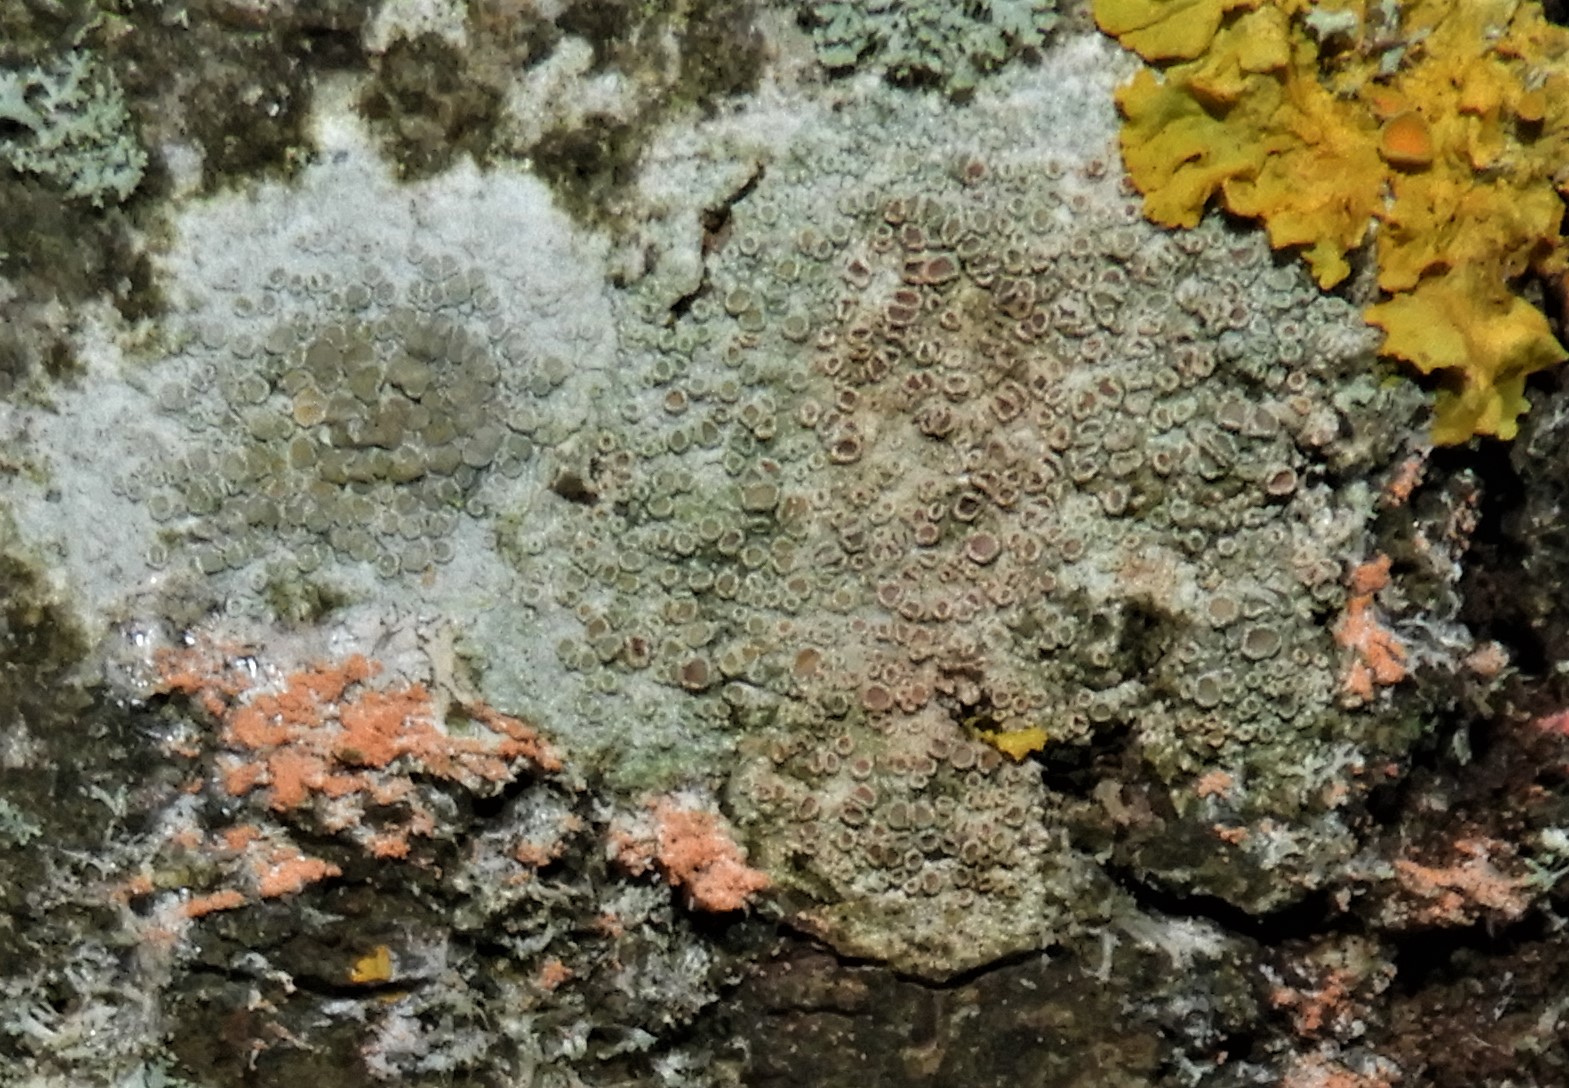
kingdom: Fungi
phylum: Ascomycota
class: Lecanoromycetes
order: Lecanorales
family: Lecanoraceae
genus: Lecanora
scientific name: Lecanora chlarotera
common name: brun kantskivelav
